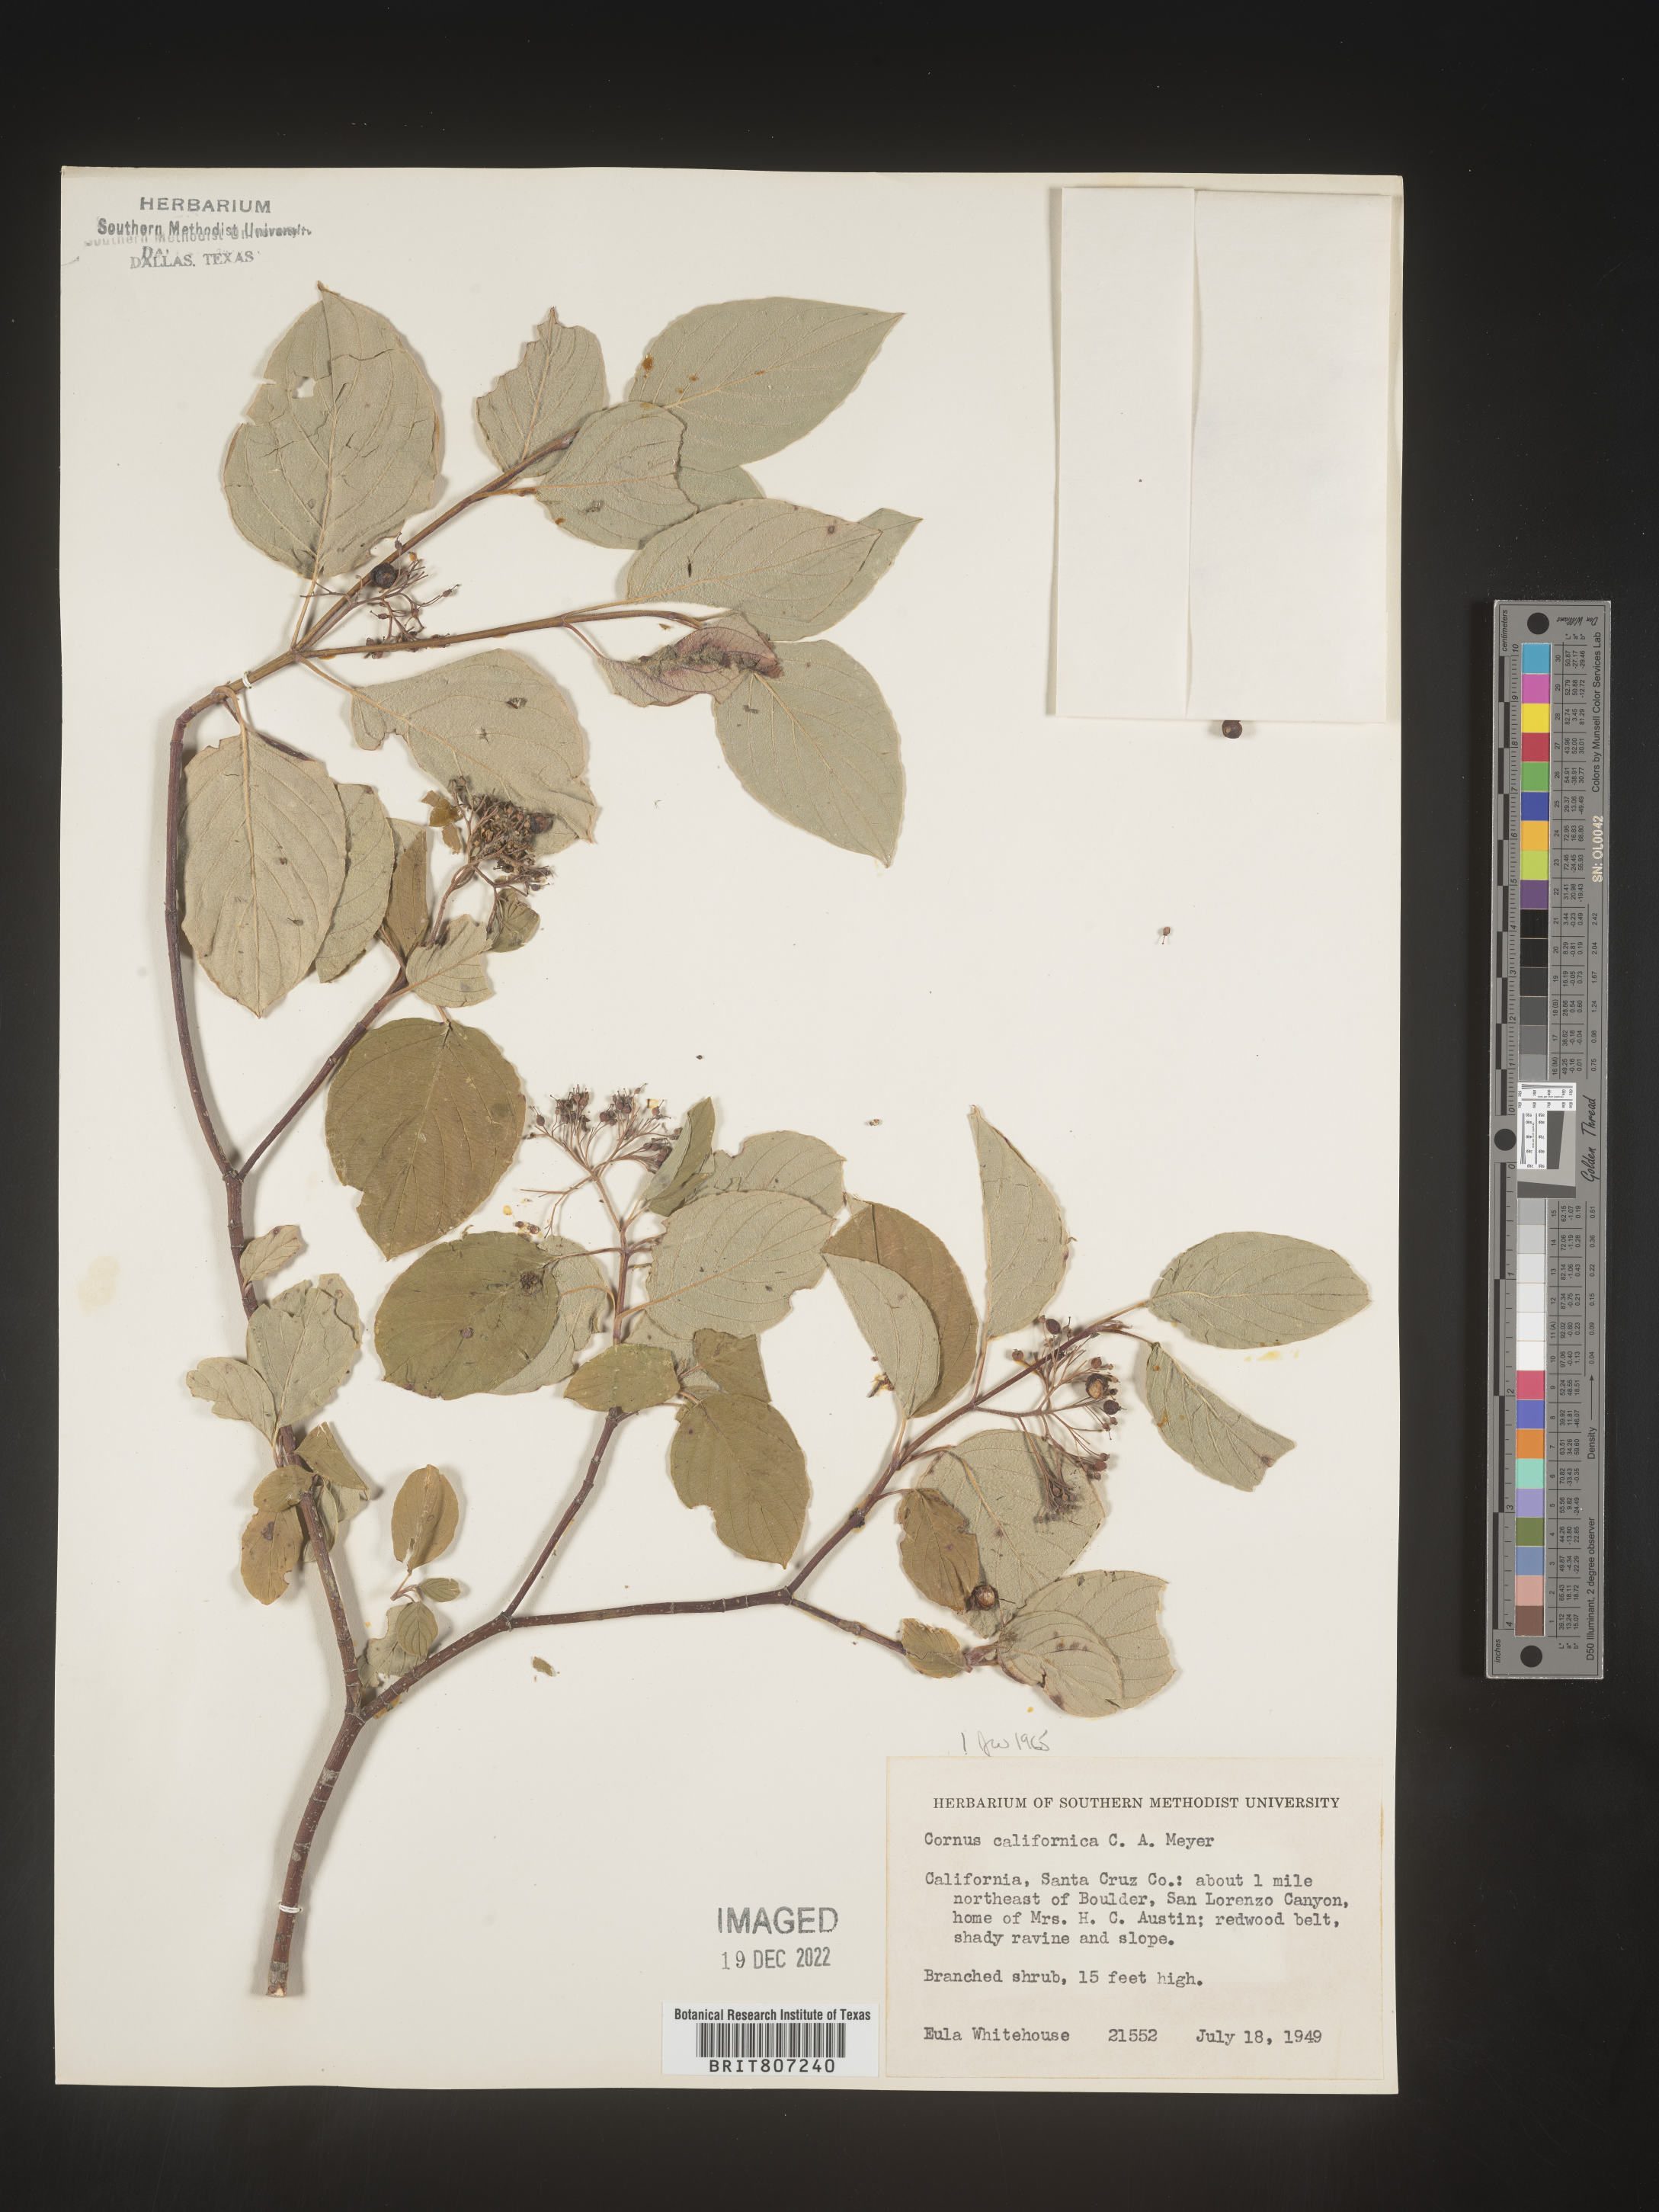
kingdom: Plantae
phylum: Tracheophyta
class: Magnoliopsida
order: Cornales
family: Cornaceae
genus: Cornus
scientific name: Cornus
